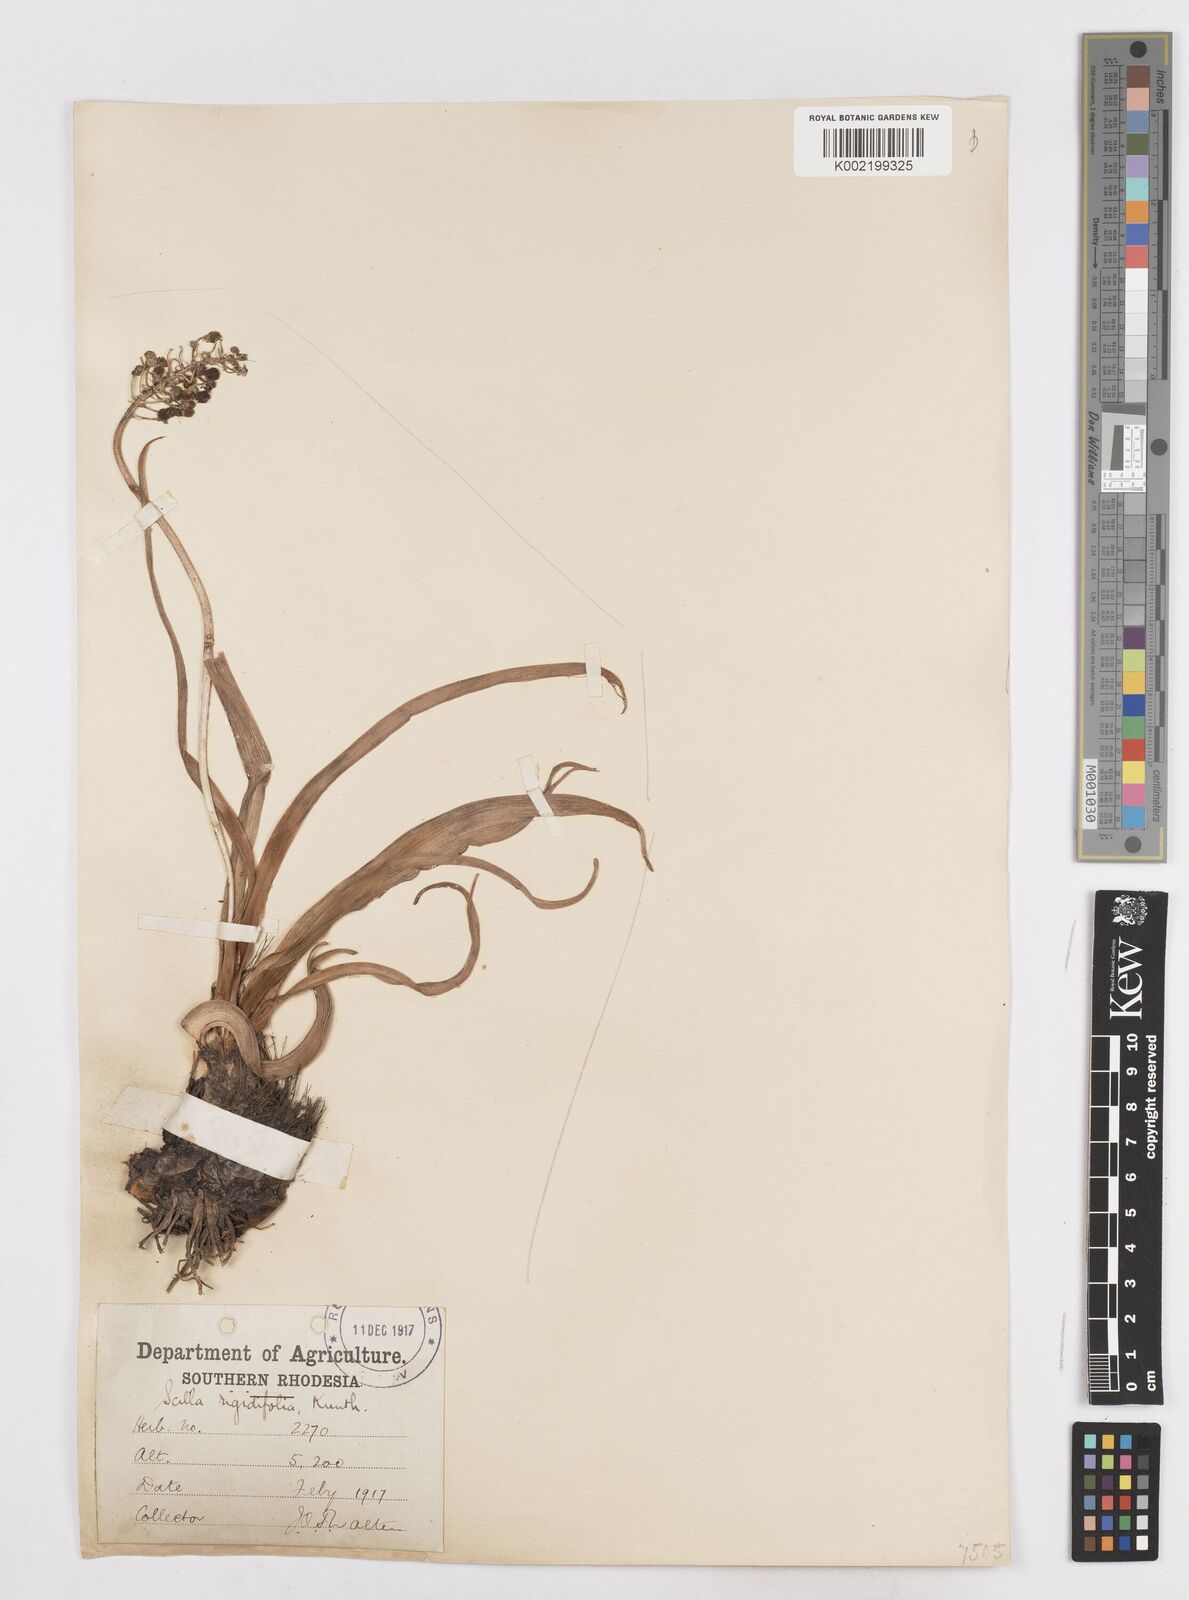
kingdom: Plantae
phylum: Tracheophyta
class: Liliopsida
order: Asparagales
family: Asparagaceae
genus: Schizocarphus
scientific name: Schizocarphus nervosus
